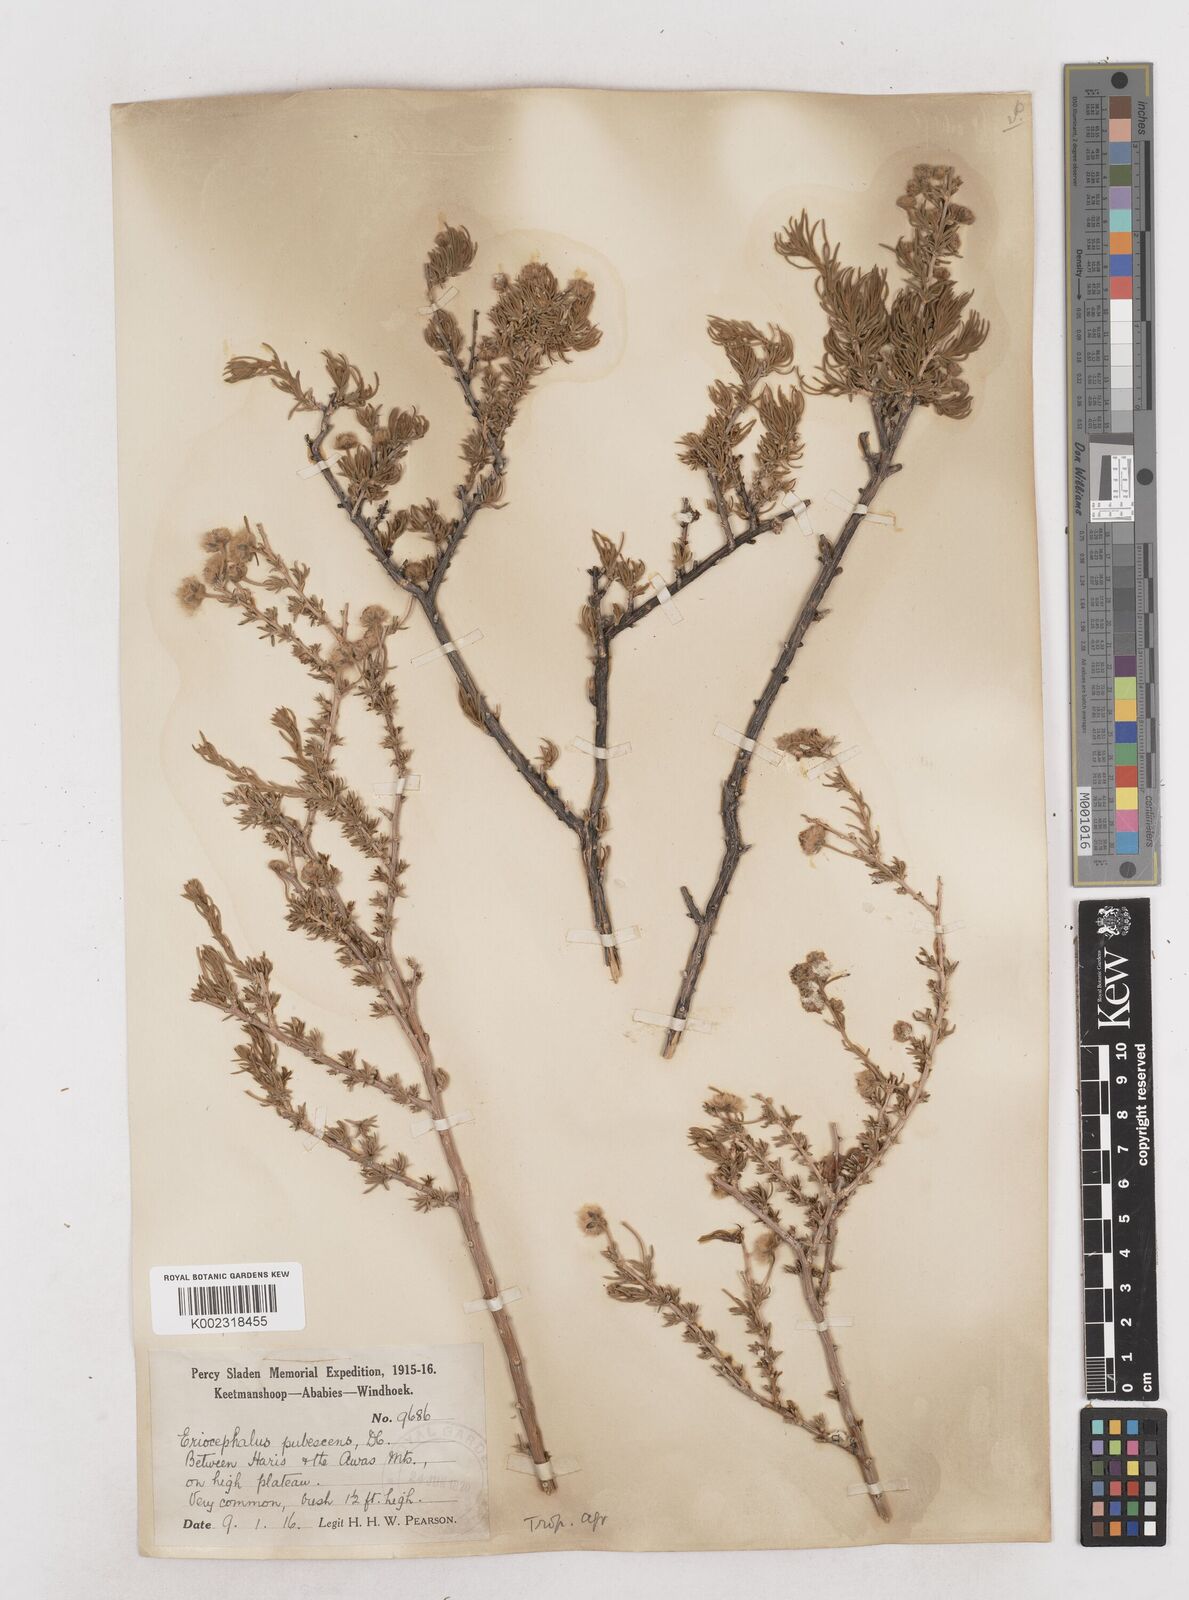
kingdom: Plantae
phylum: Tracheophyta
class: Magnoliopsida
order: Asterales
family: Asteraceae
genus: Eriocephalus
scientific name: Eriocephalus
